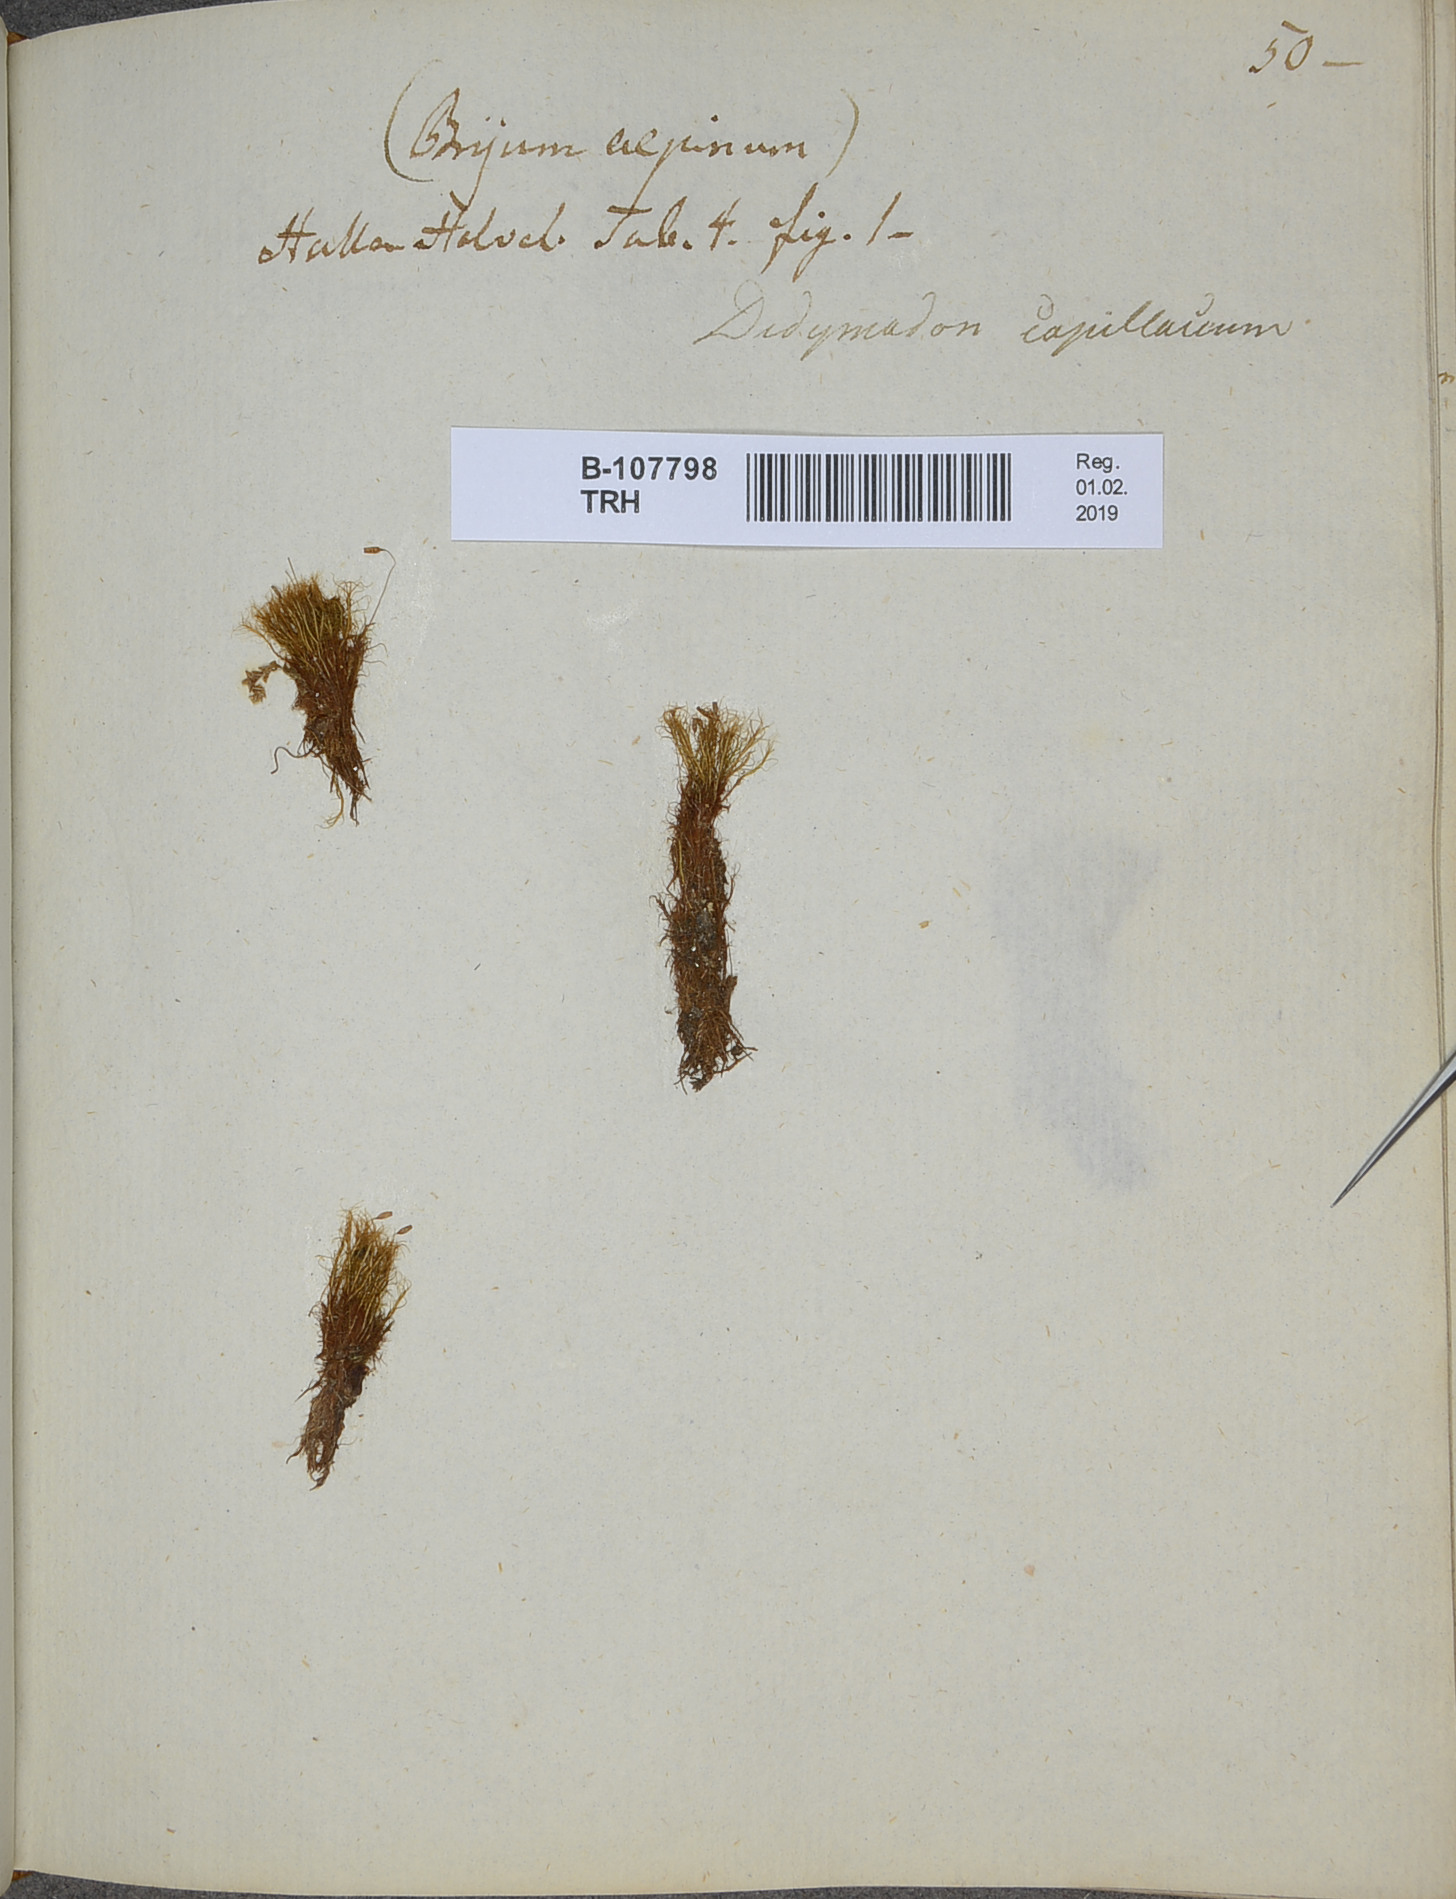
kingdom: Plantae
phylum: Bryophyta
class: Bryopsida
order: Scouleriales
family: Distichiaceae
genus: Distichium
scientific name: Distichium capillaceum
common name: Erect-fruited iris moss
